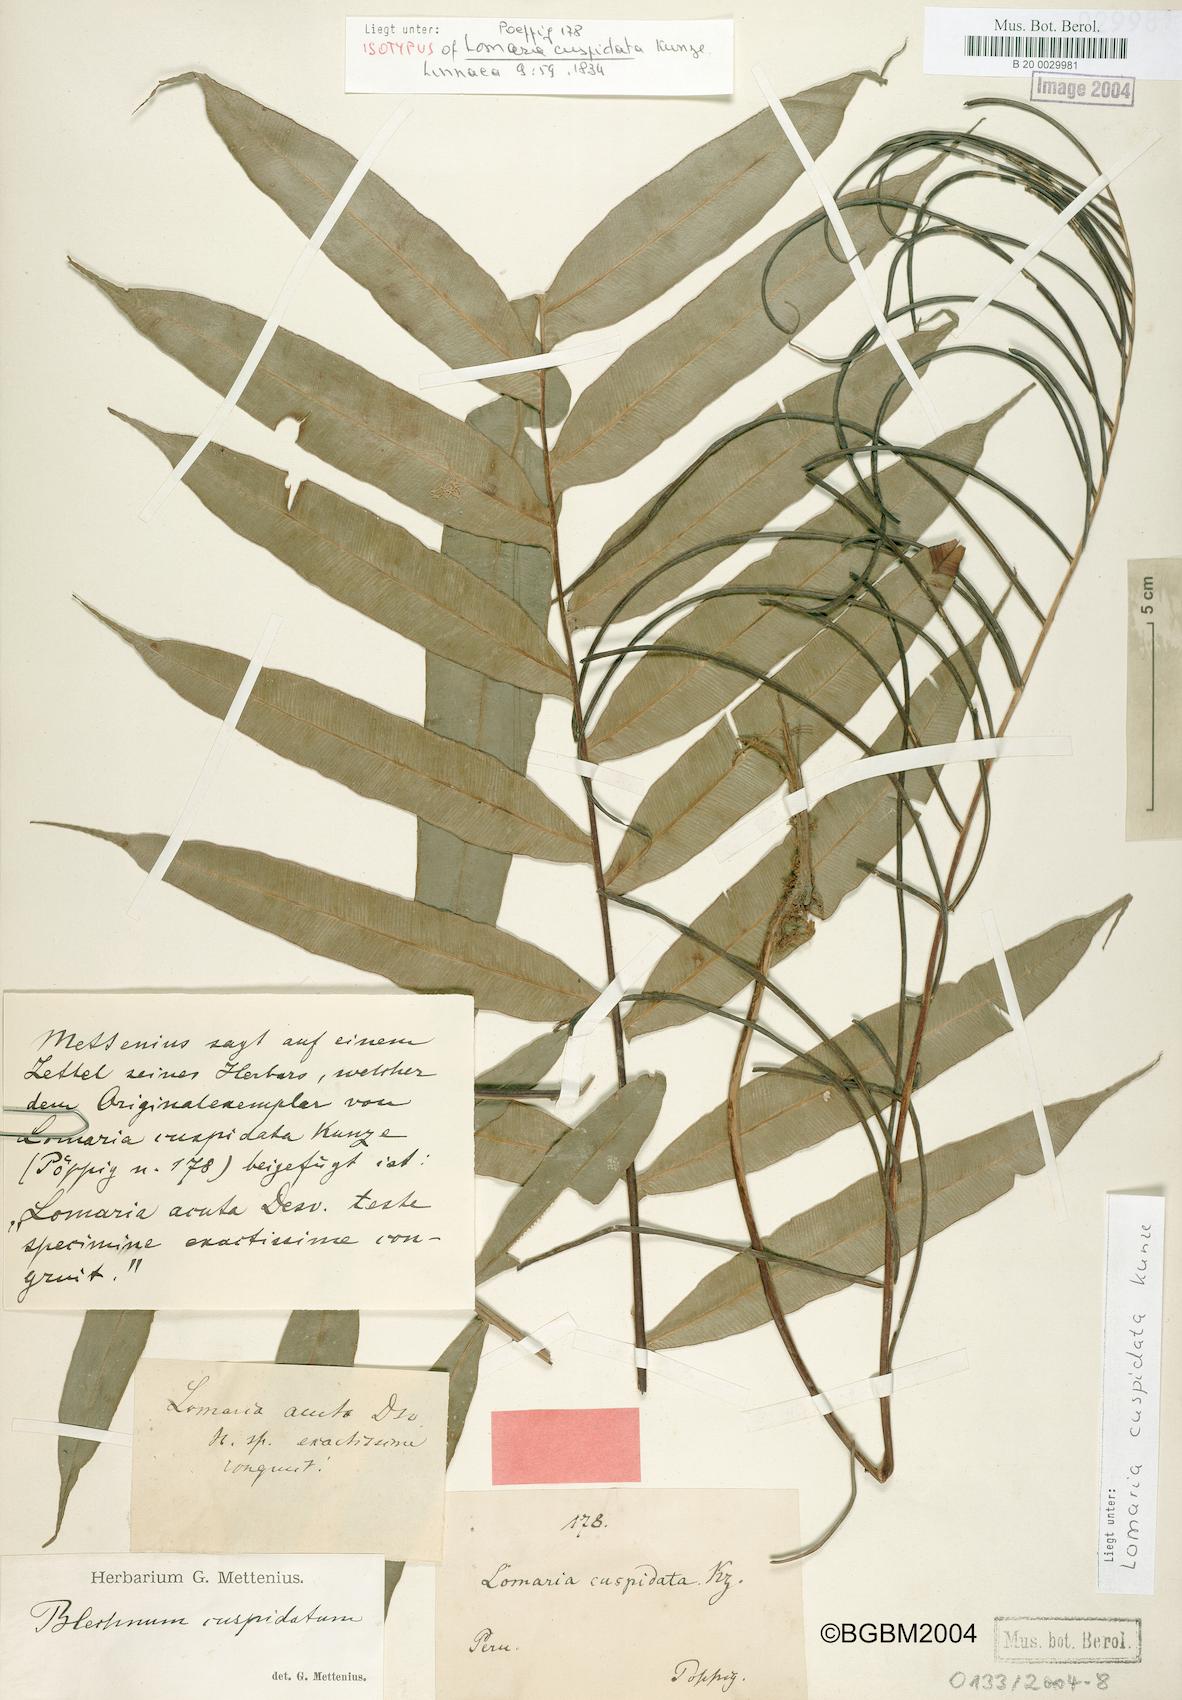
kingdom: Plantae
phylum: Tracheophyta
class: Polypodiopsida
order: Polypodiales
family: Blechnaceae
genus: Lomaridium
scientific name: Lomaridium acutum
